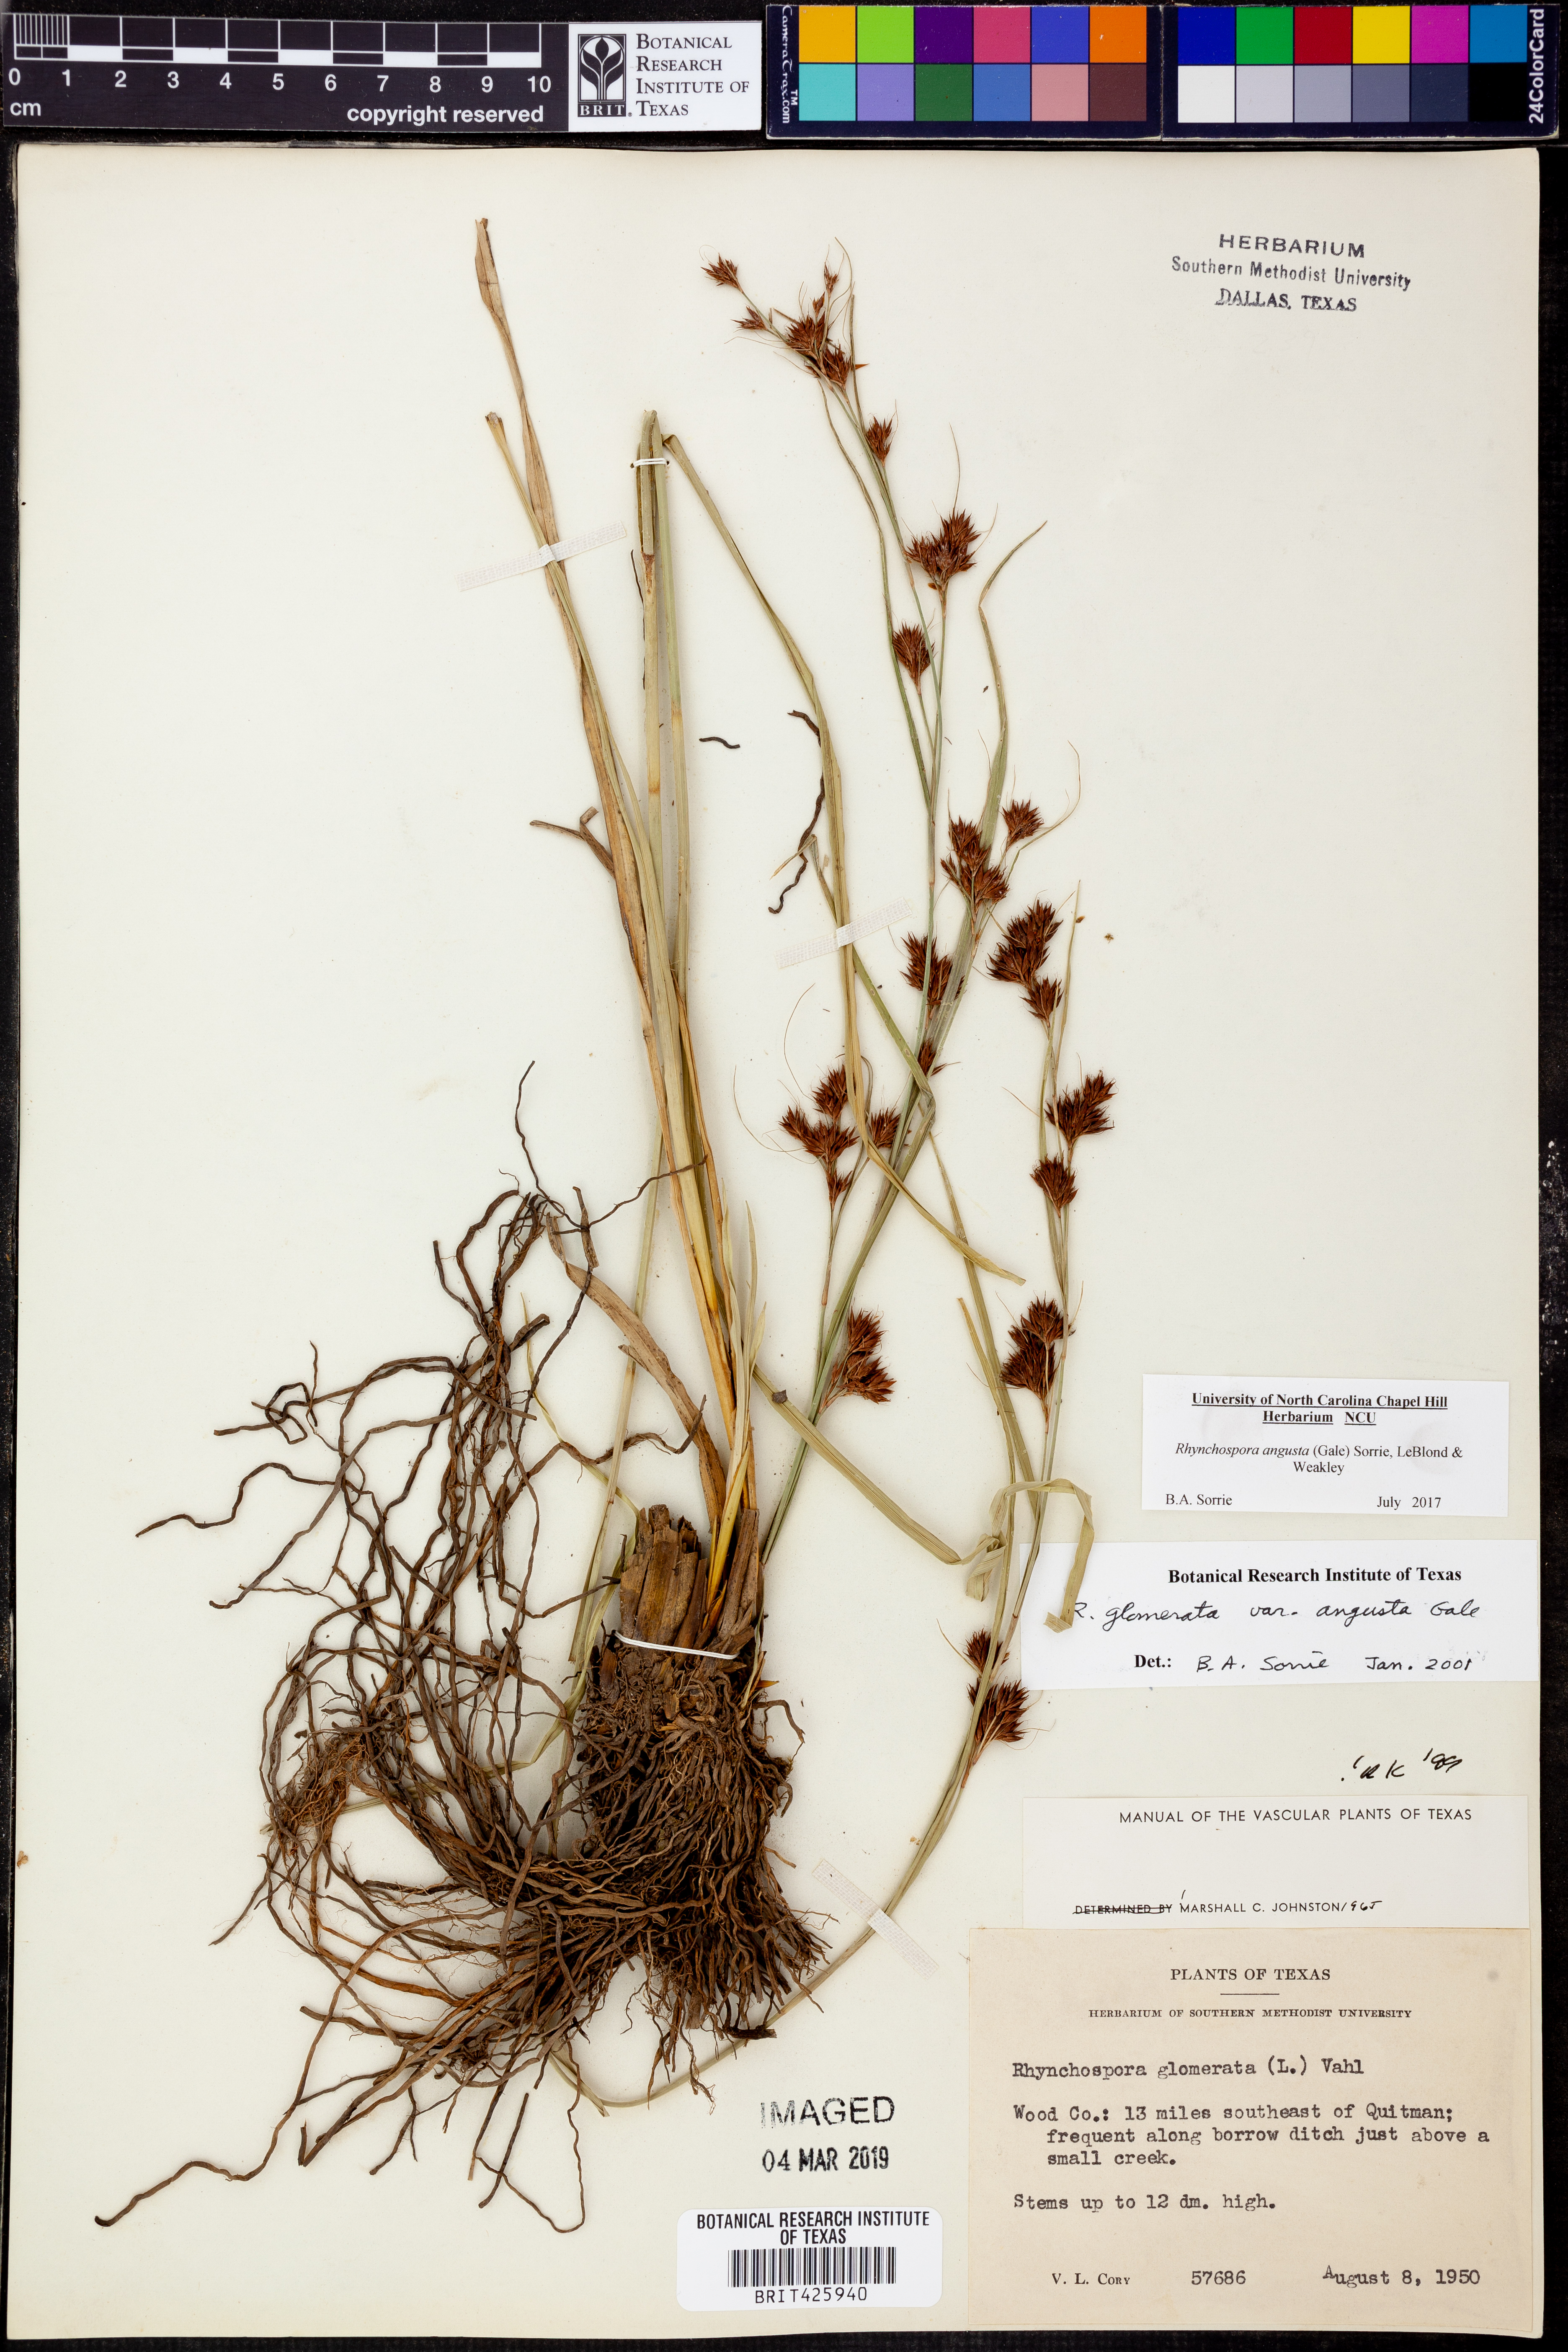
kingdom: Plantae
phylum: Tracheophyta
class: Liliopsida
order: Poales
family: Cyperaceae
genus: Rhynchospora
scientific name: Rhynchospora angusta
